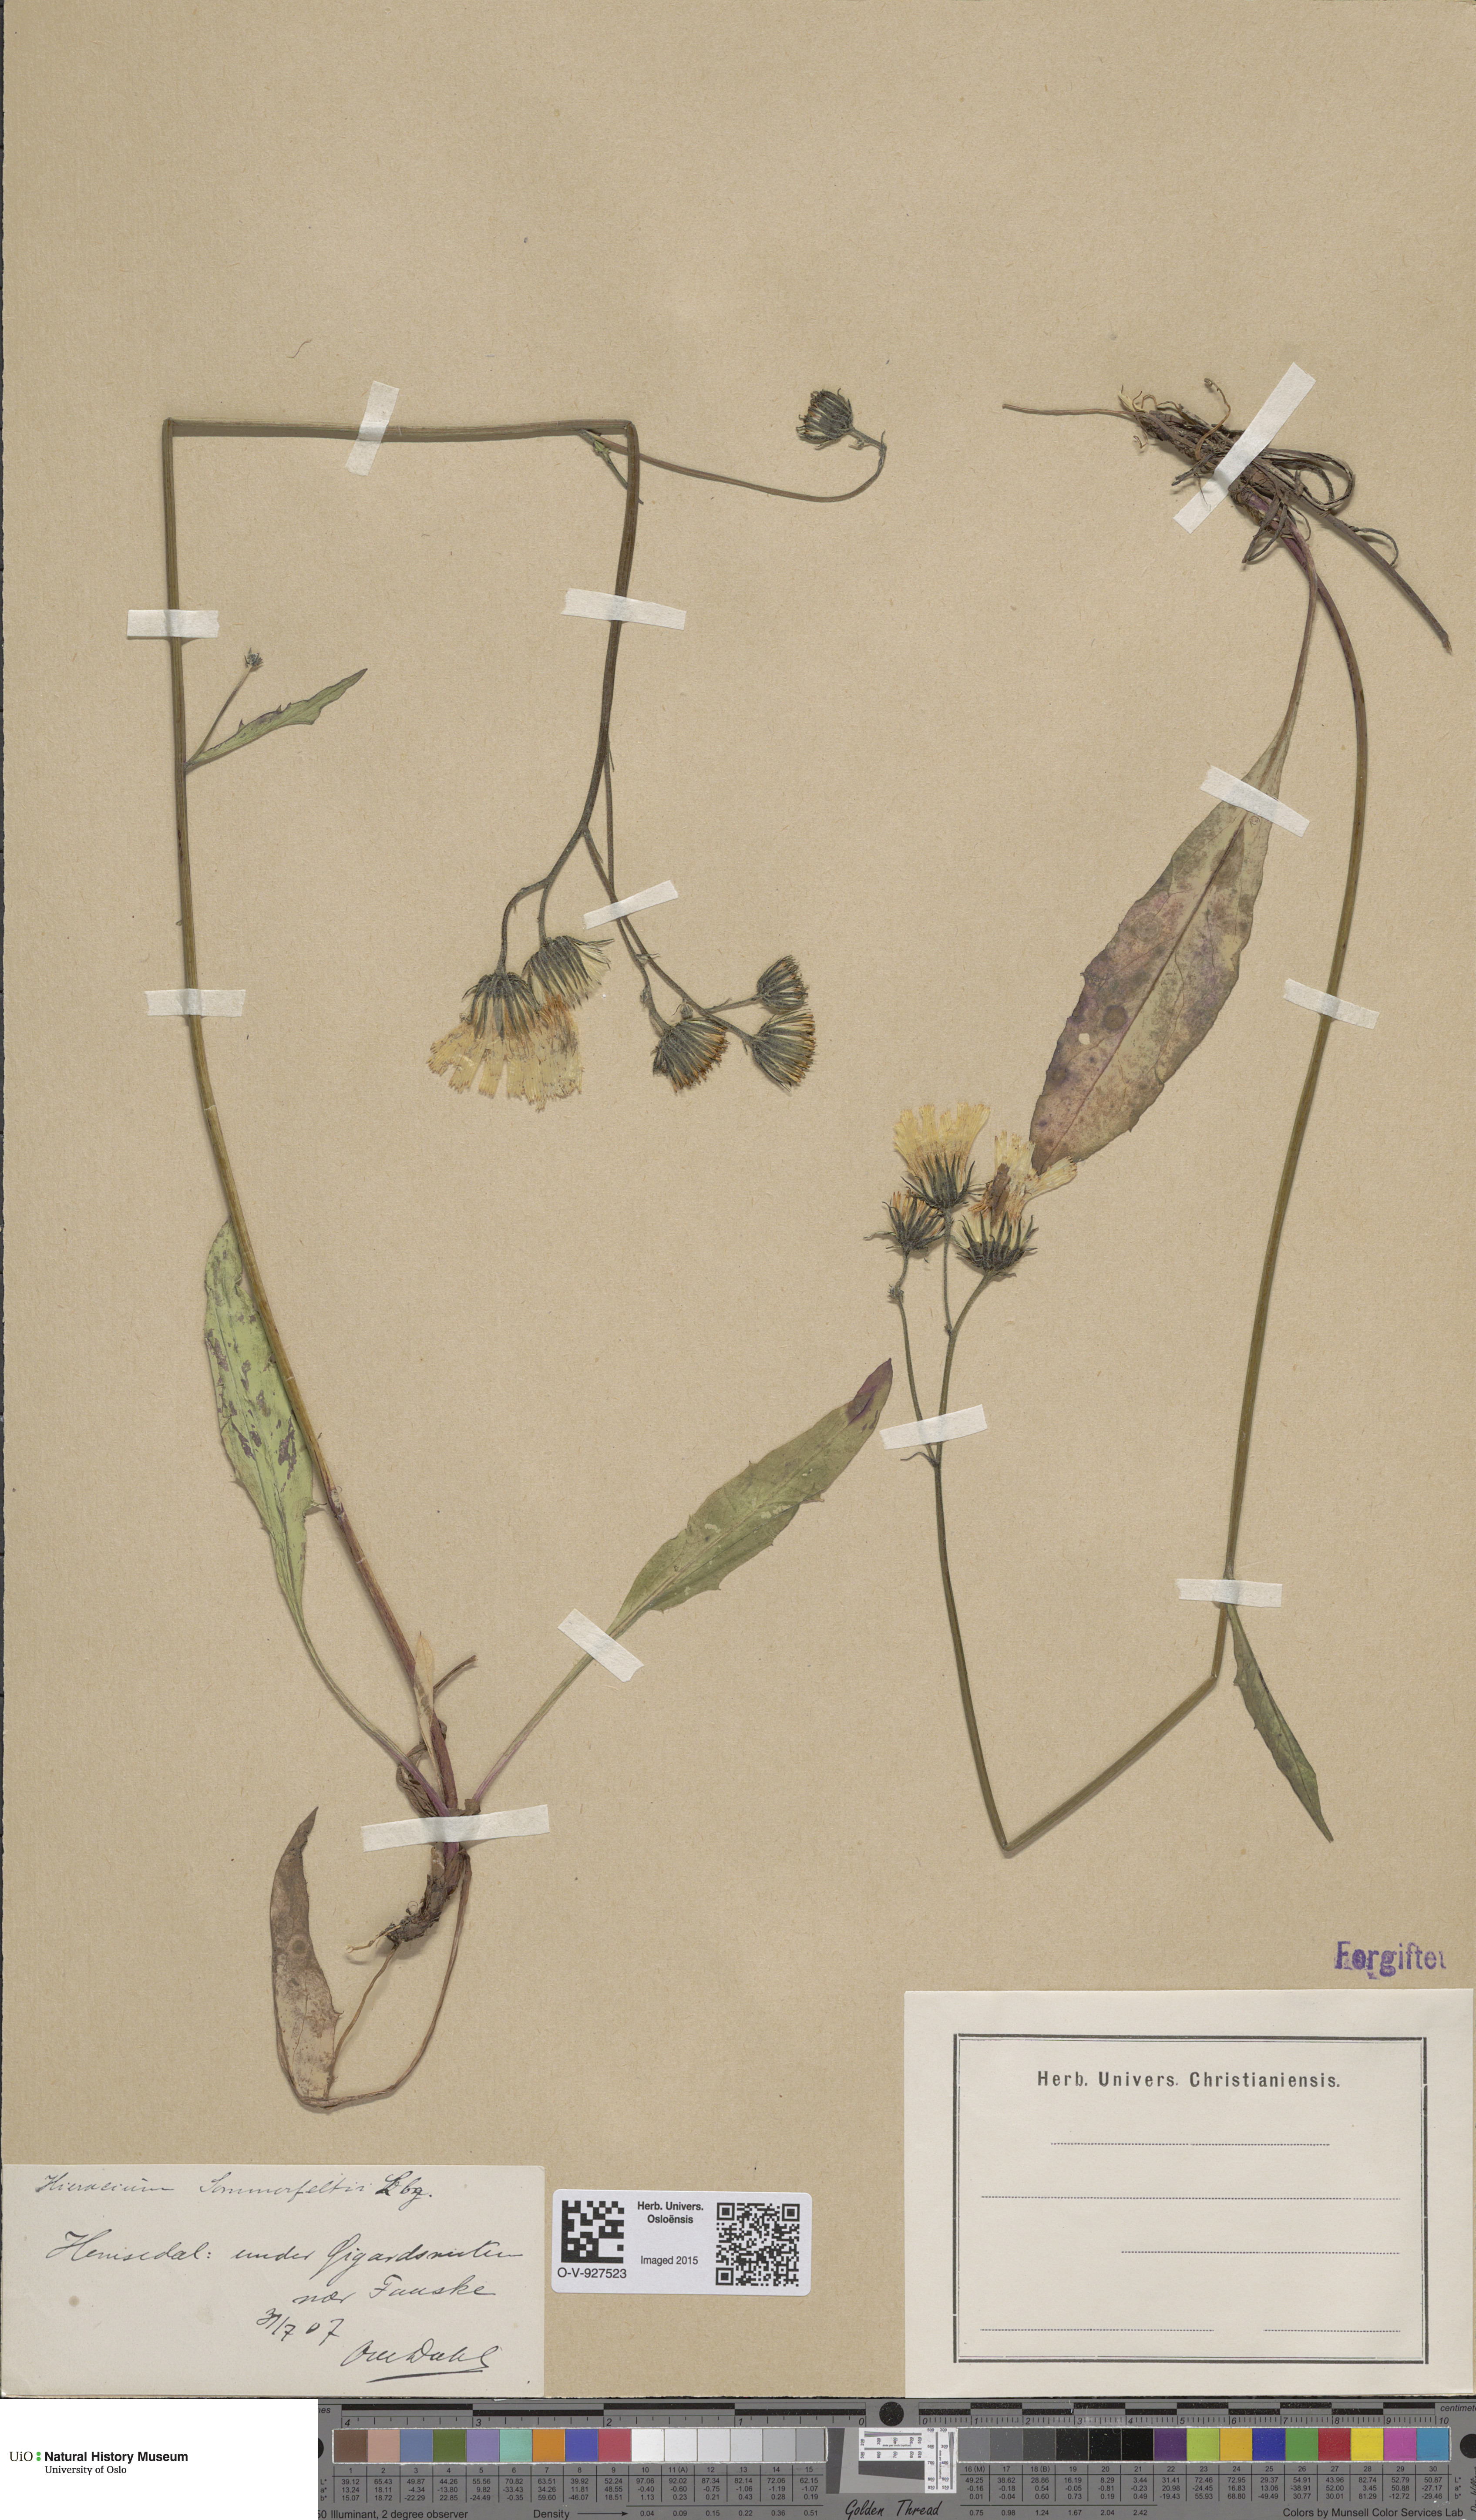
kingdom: Plantae
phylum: Tracheophyta
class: Magnoliopsida
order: Asterales
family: Asteraceae
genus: Hieracium
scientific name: Hieracium sommerfeltii
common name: Sommerfelt's hawkweed
